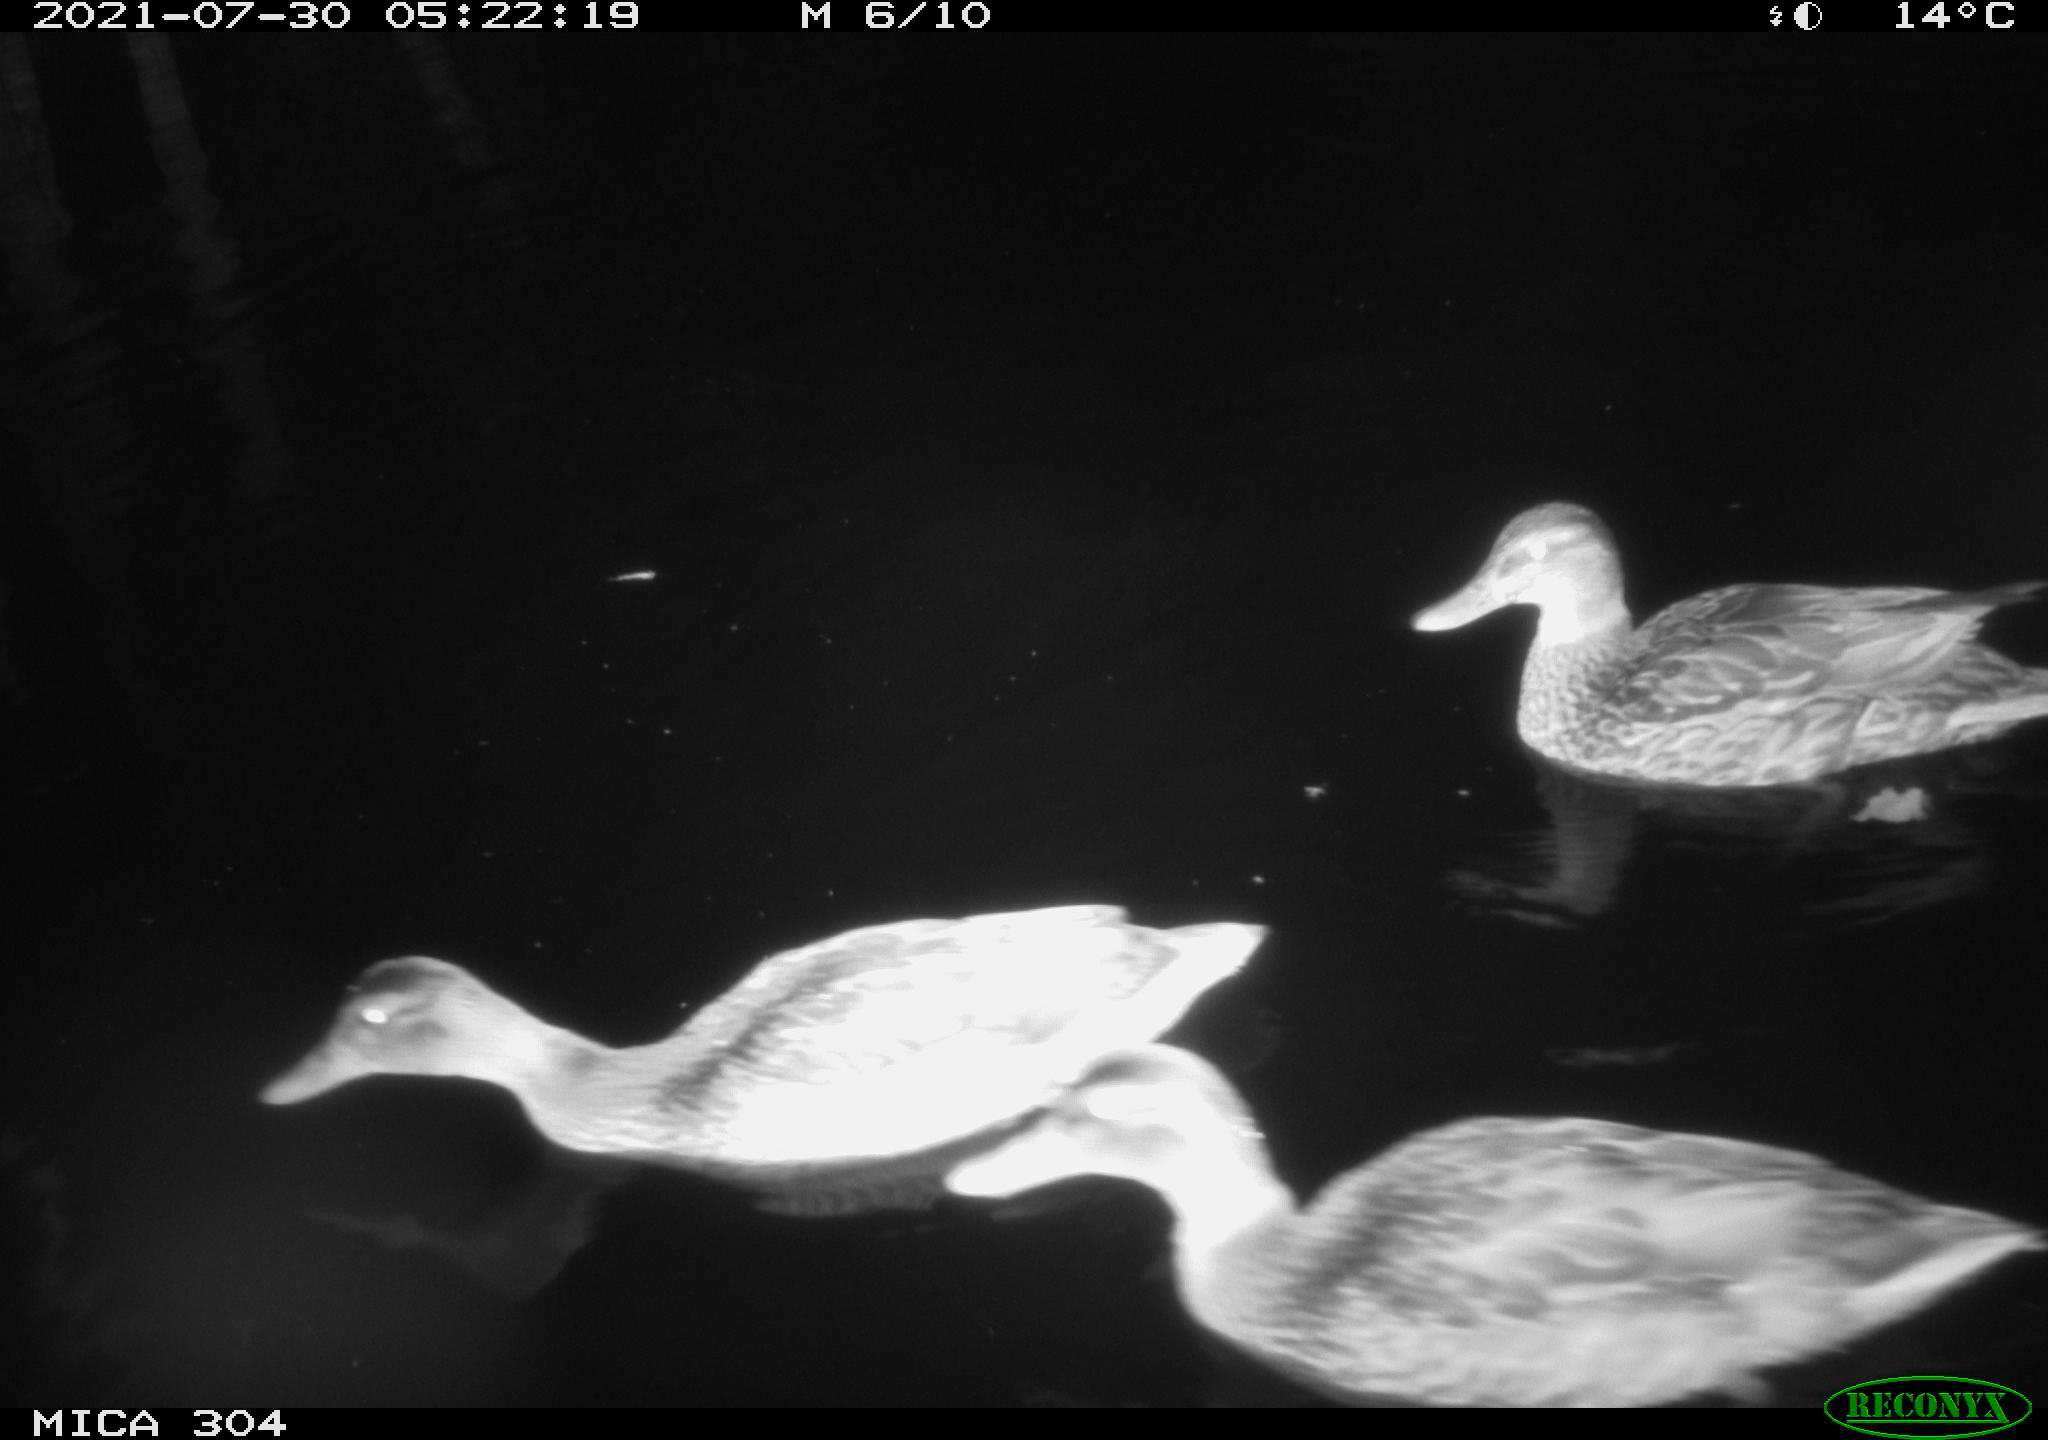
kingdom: Animalia
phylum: Chordata
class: Aves
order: Anseriformes
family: Anatidae
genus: Anas
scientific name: Anas platyrhynchos
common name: Mallard
